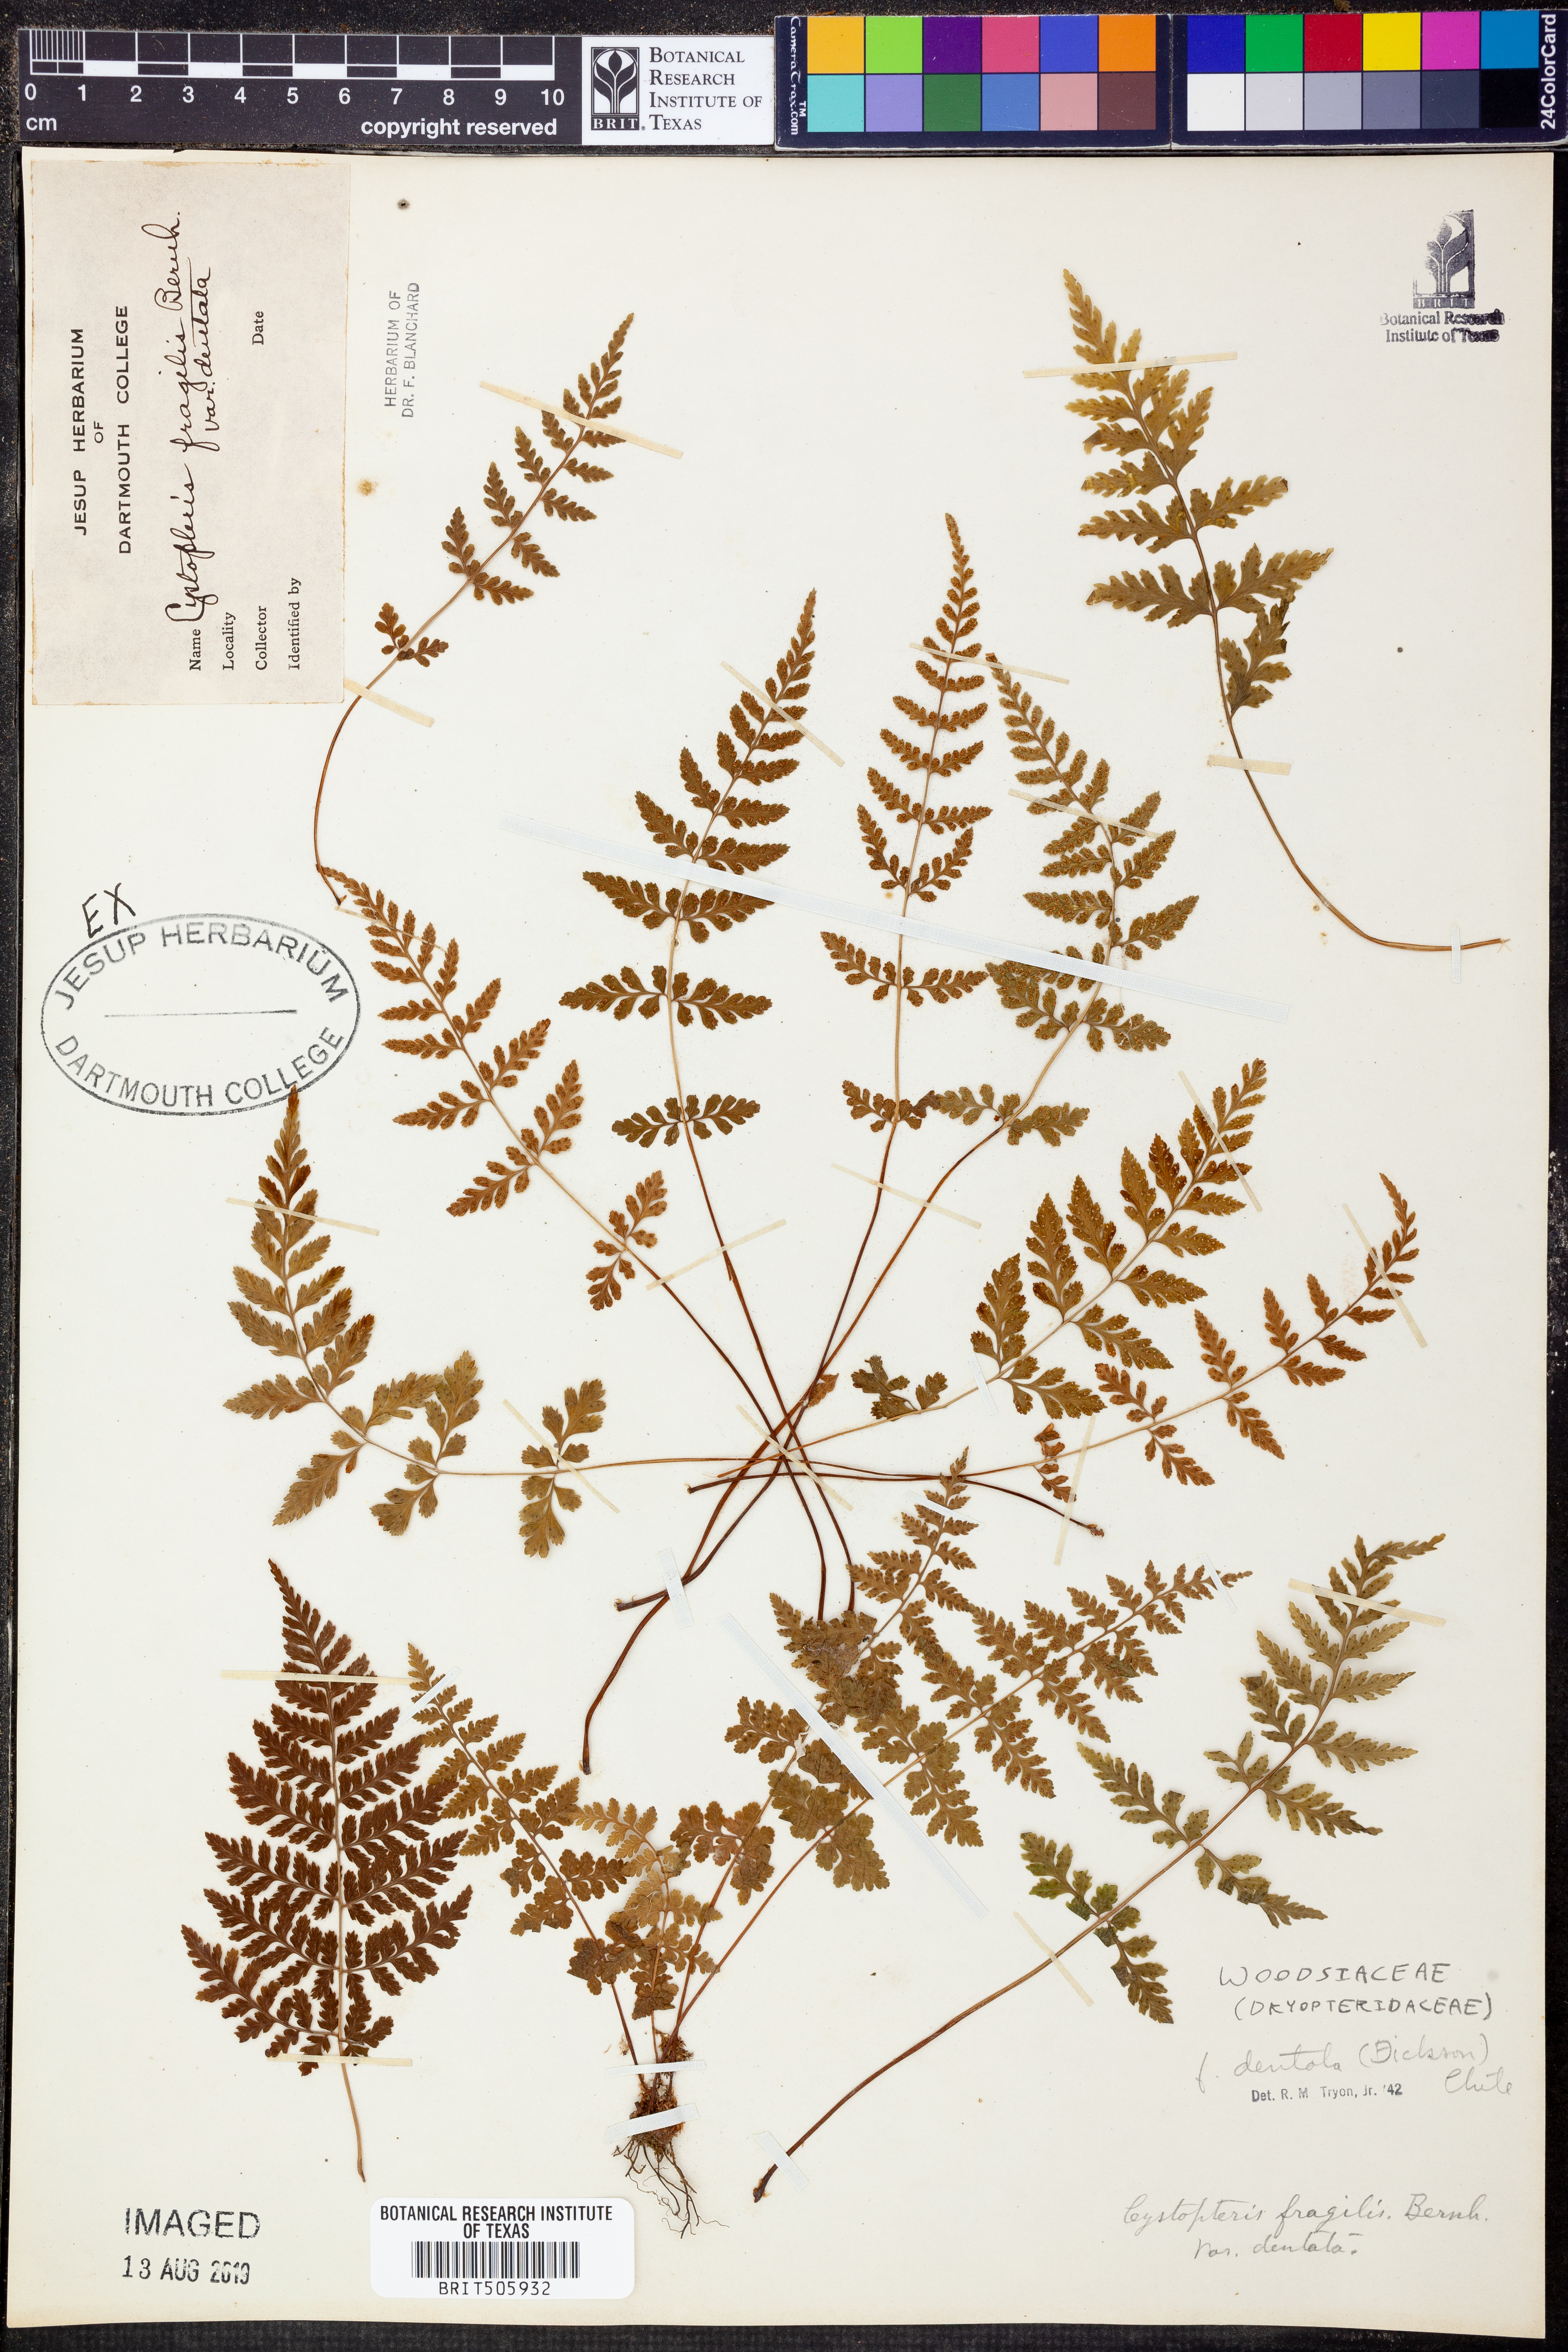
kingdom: Plantae
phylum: Tracheophyta
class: Polypodiopsida
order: Polypodiales
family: Cystopteridaceae
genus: Cystopteris
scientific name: Cystopteris fragilis
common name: Brittle bladder fern
